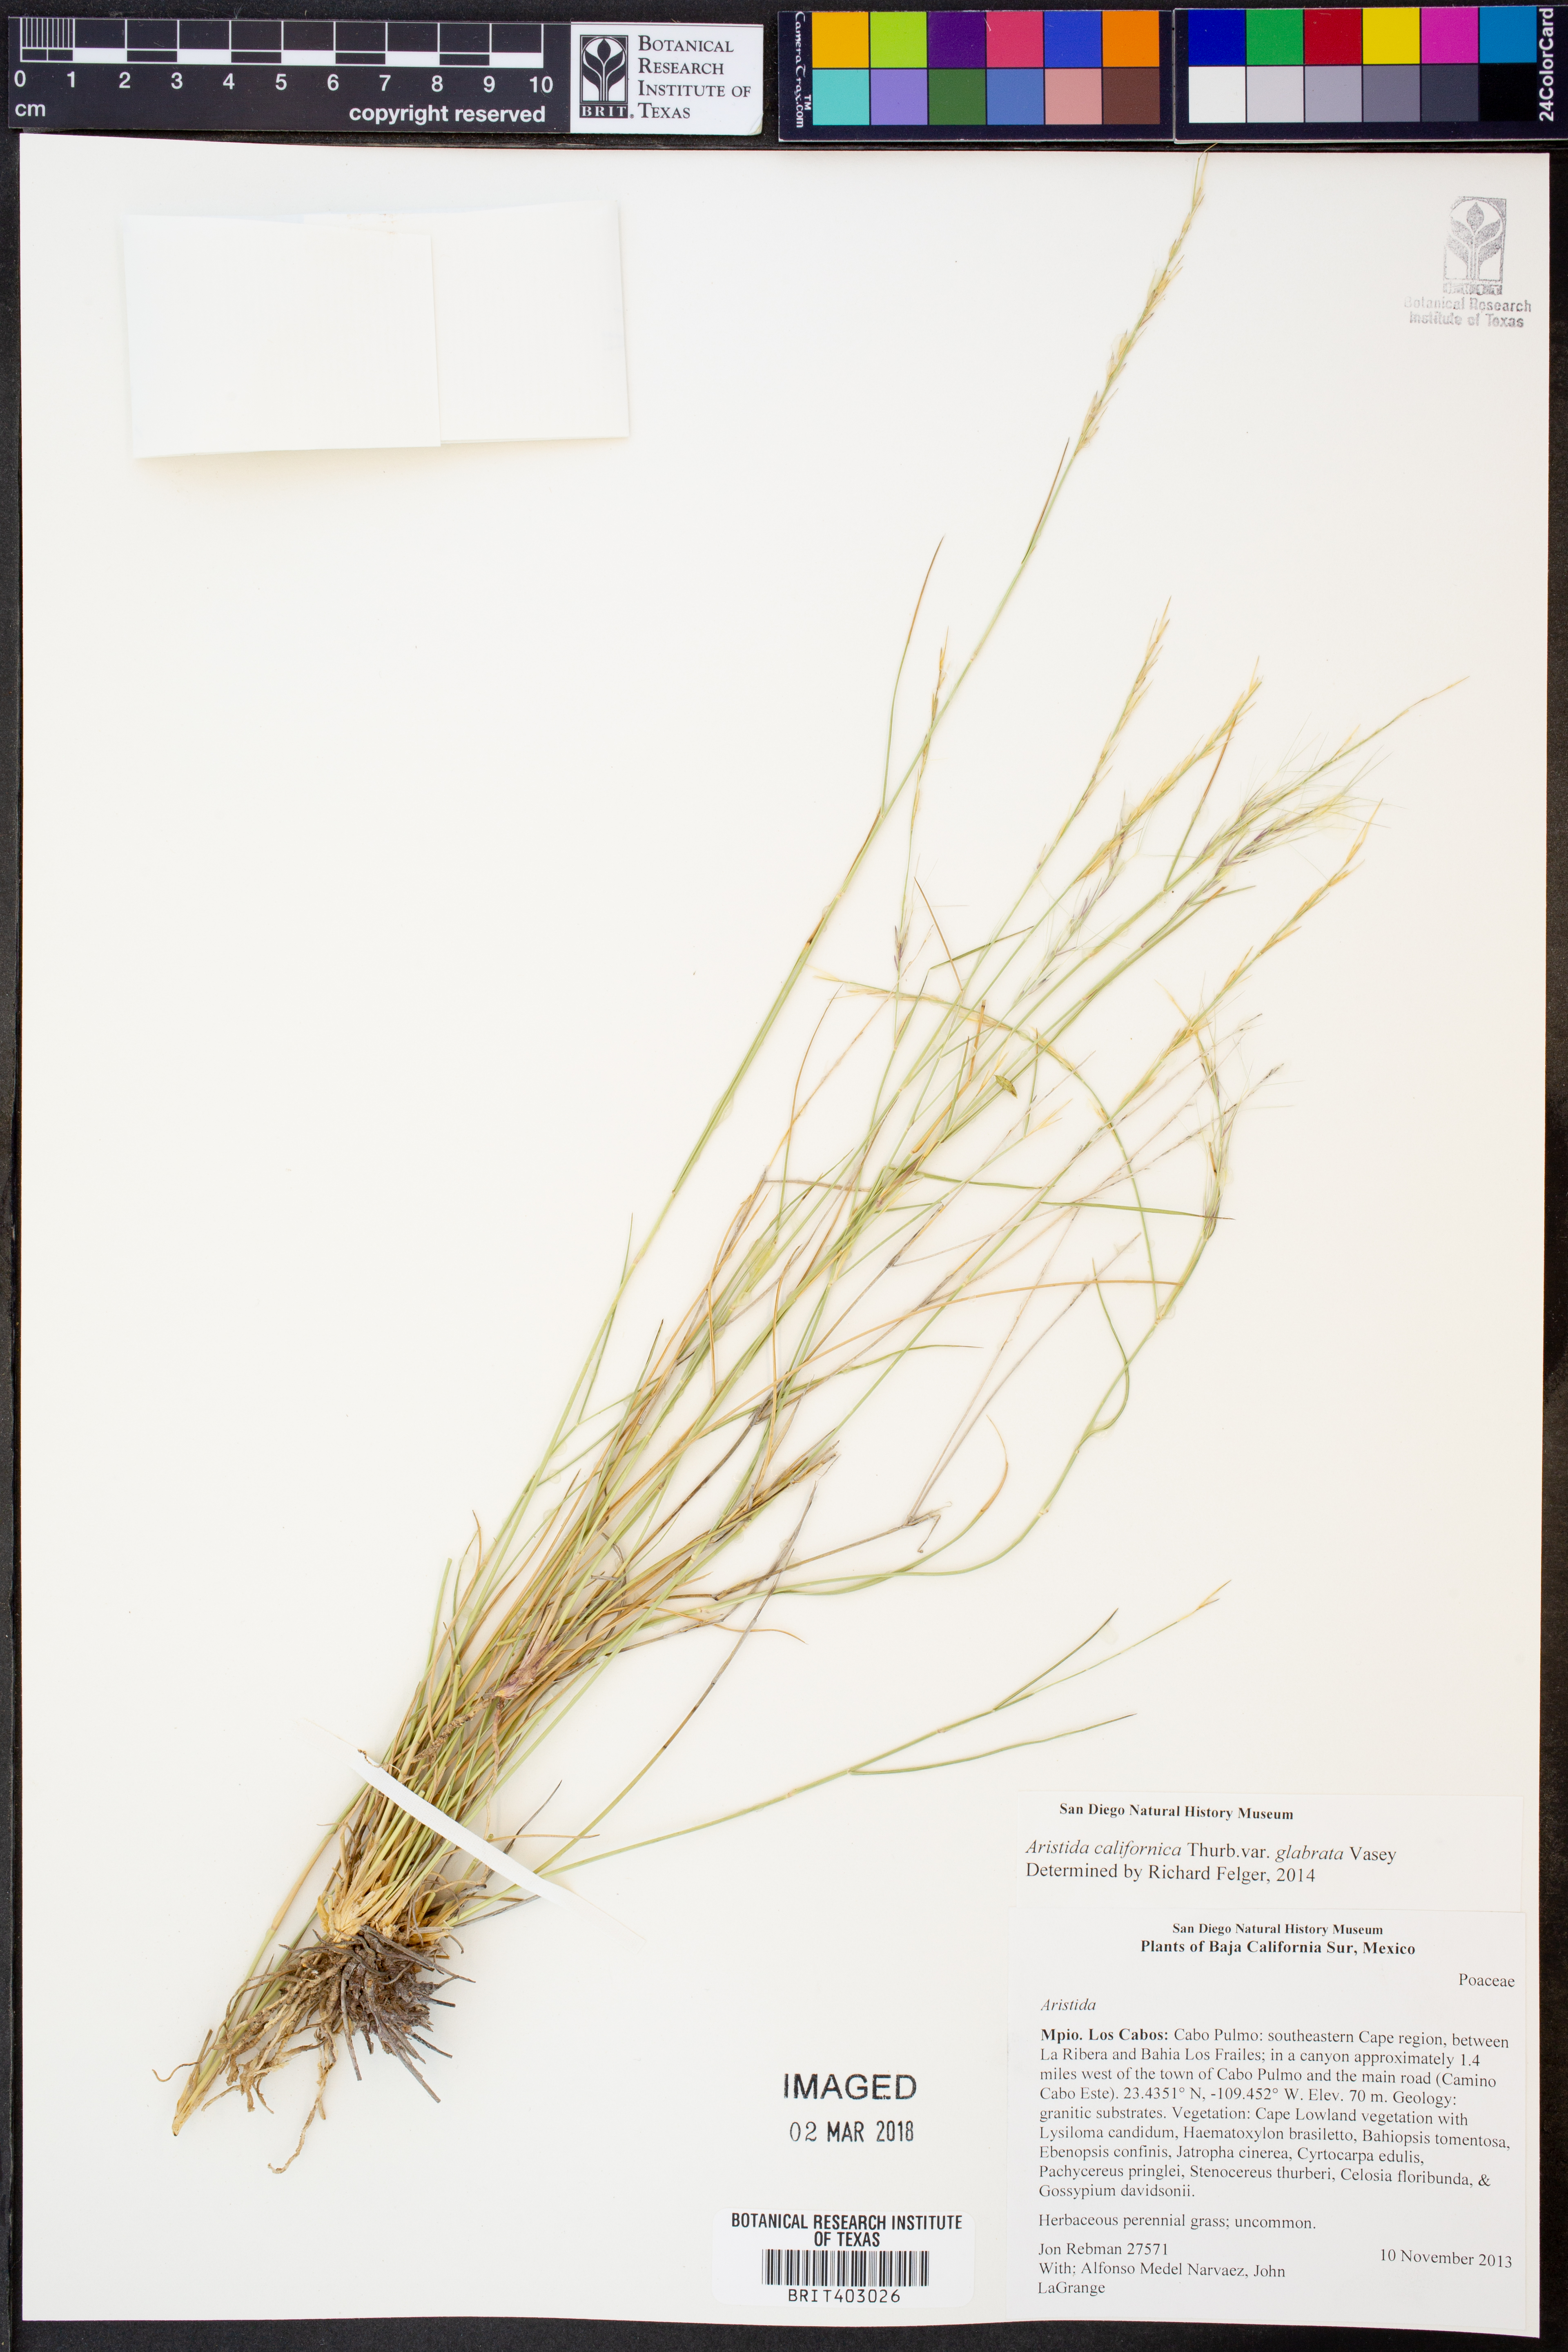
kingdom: Plantae
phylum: Tracheophyta
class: Liliopsida
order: Poales
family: Poaceae
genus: Aristida
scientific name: Aristida glabrata
